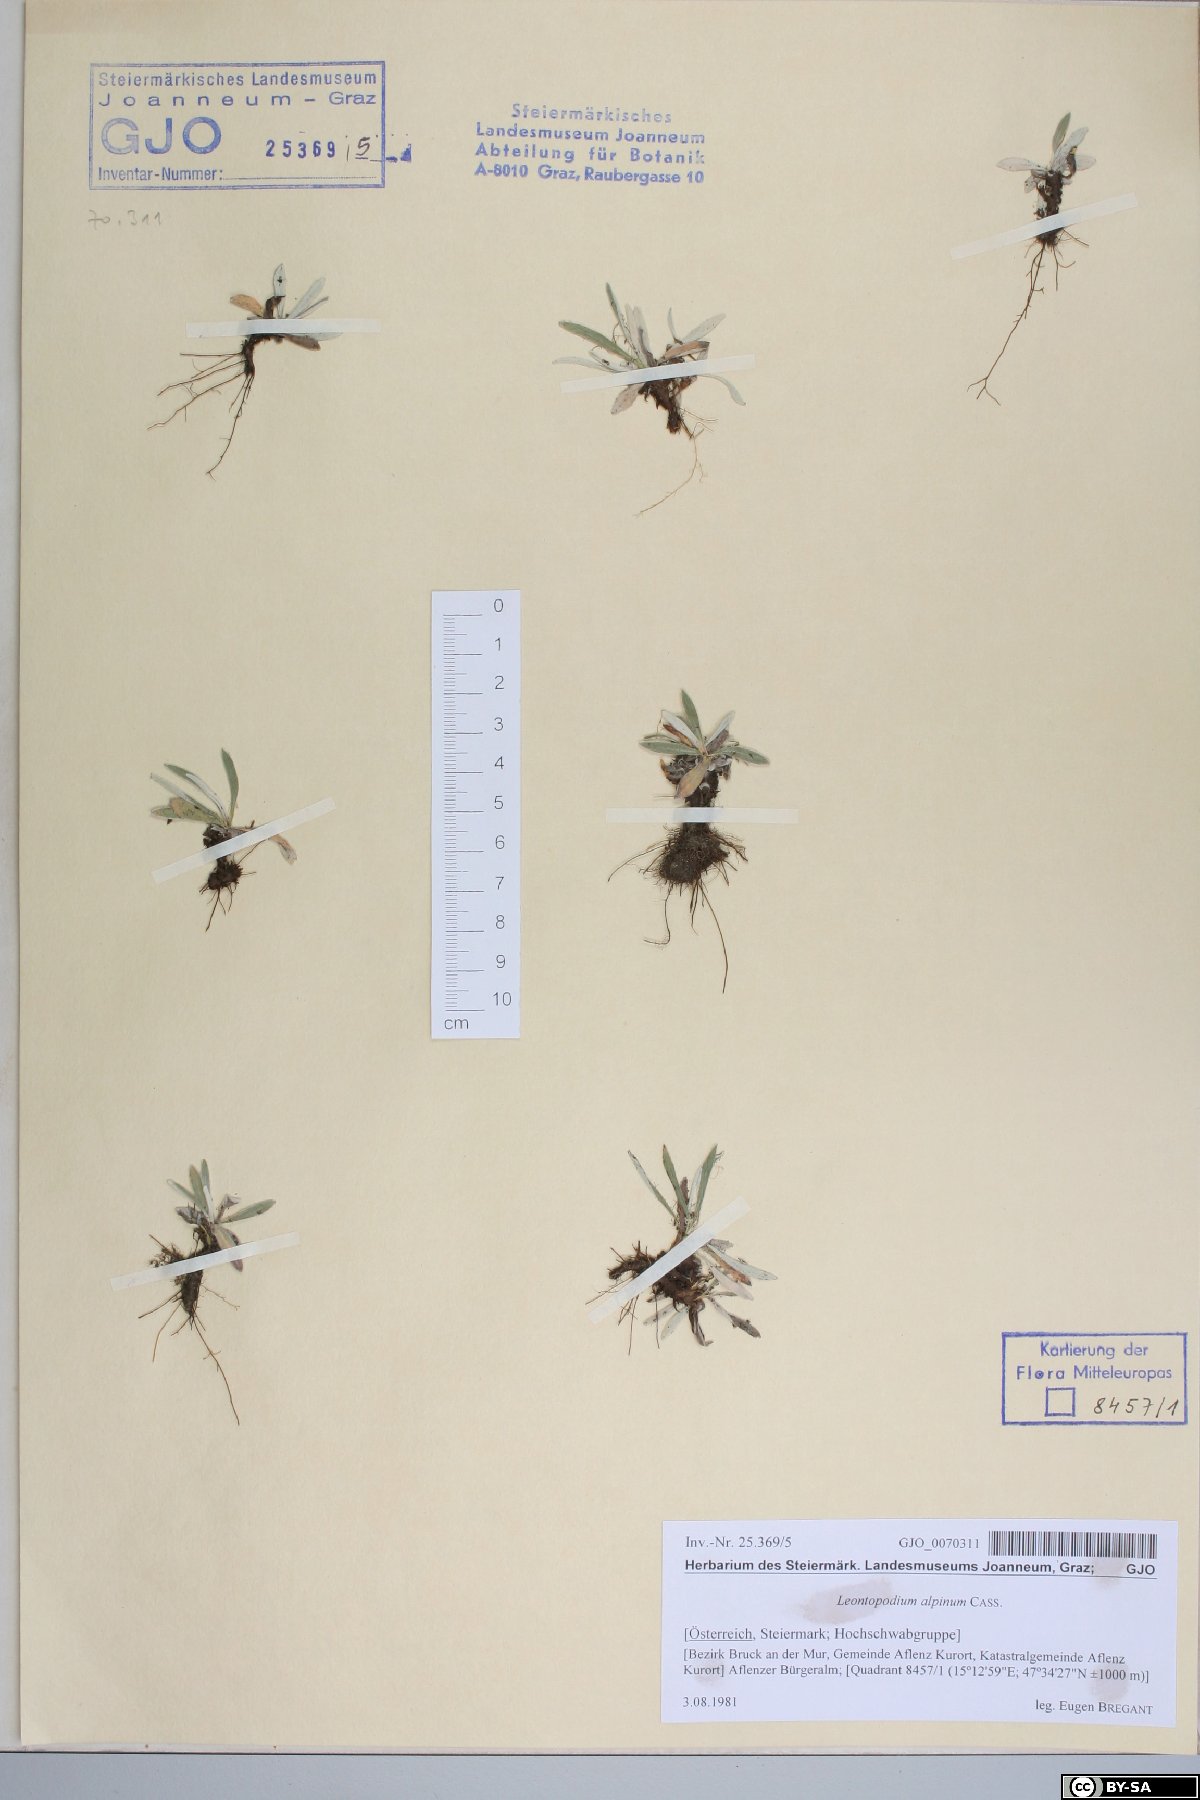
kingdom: Plantae
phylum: Tracheophyta
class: Magnoliopsida
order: Asterales
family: Asteraceae
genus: Leontopodium
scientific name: Leontopodium nivale
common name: Edelweiss
